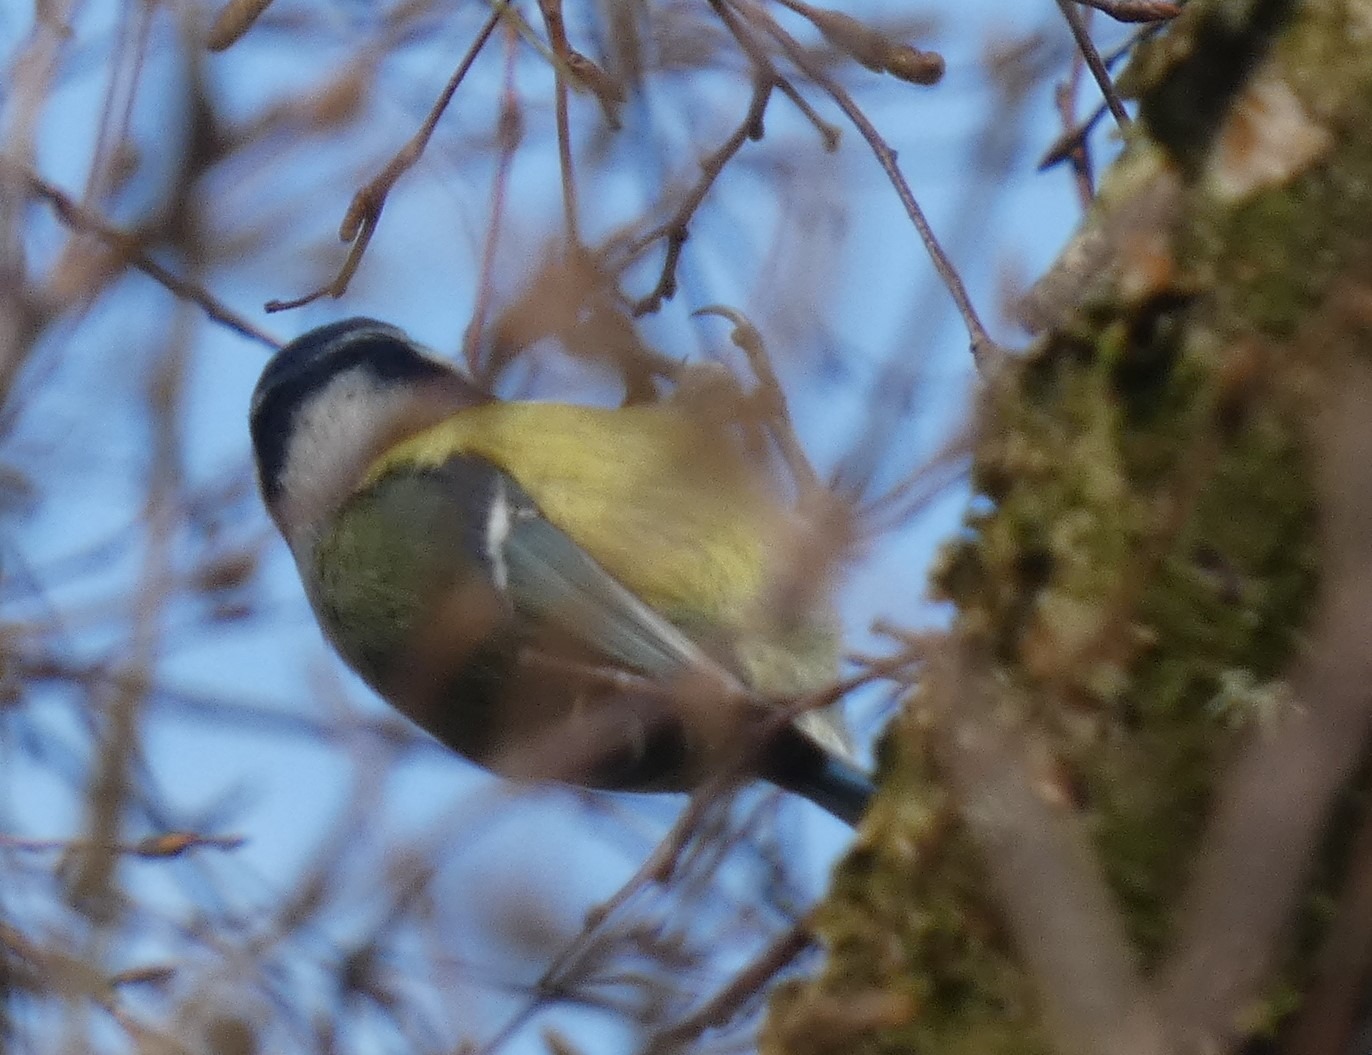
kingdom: Animalia
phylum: Chordata
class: Aves
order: Passeriformes
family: Paridae
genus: Cyanistes
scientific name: Cyanistes caeruleus
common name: Blåmejse
